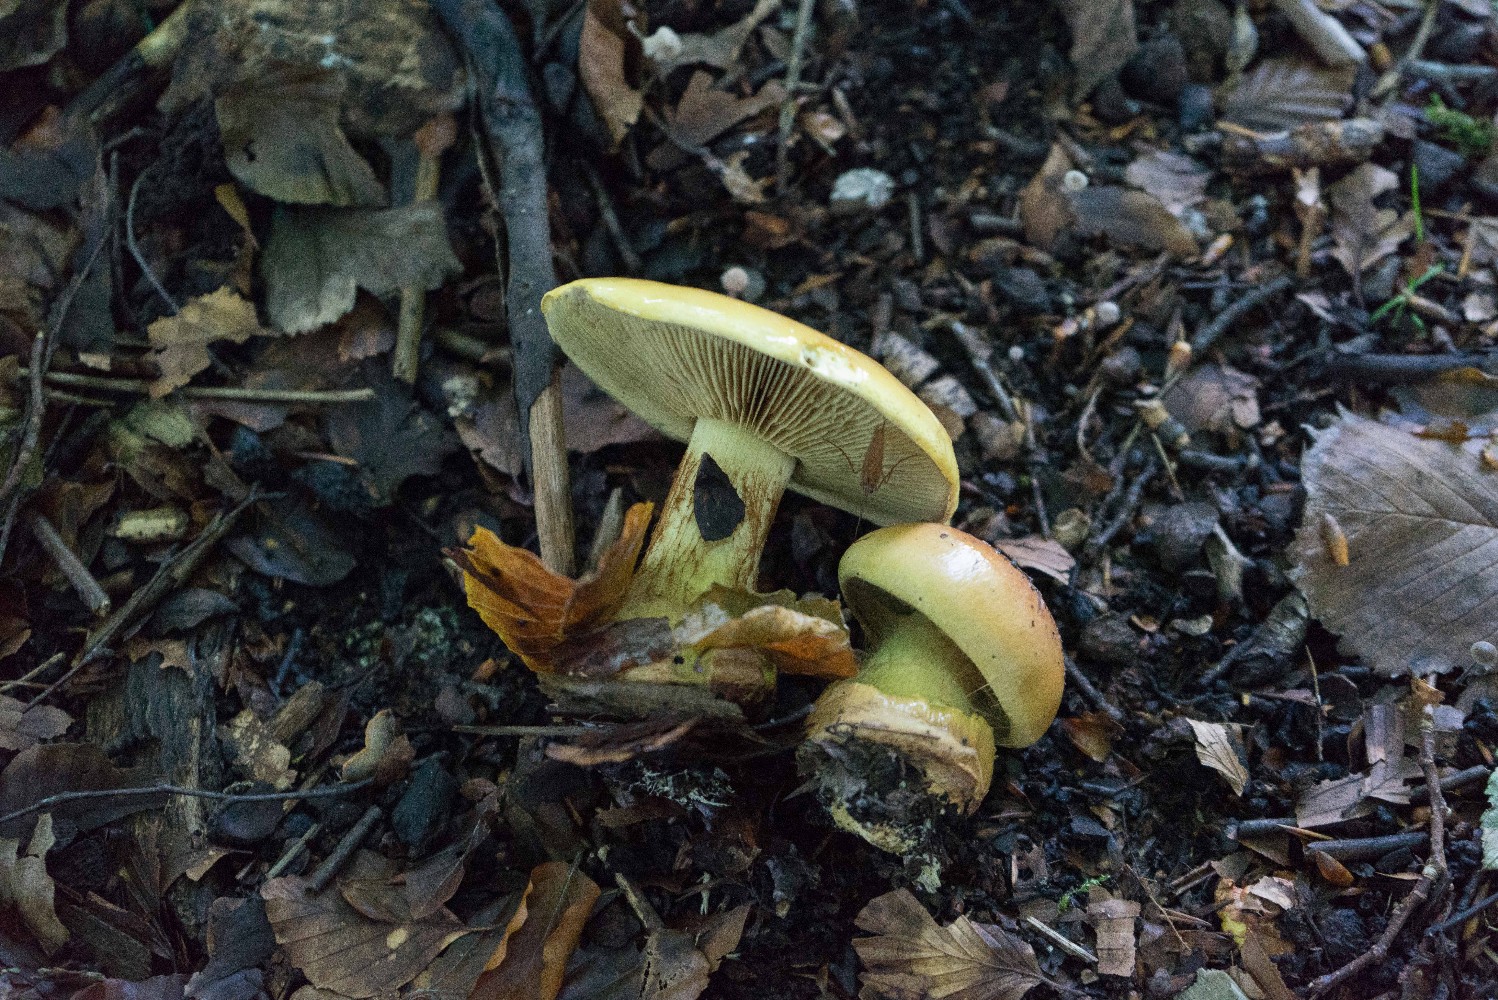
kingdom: Fungi
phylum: Basidiomycota
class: Agaricomycetes
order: Agaricales
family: Cortinariaceae
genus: Calonarius
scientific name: Calonarius elegantissimus
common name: orangegylden slørhat
